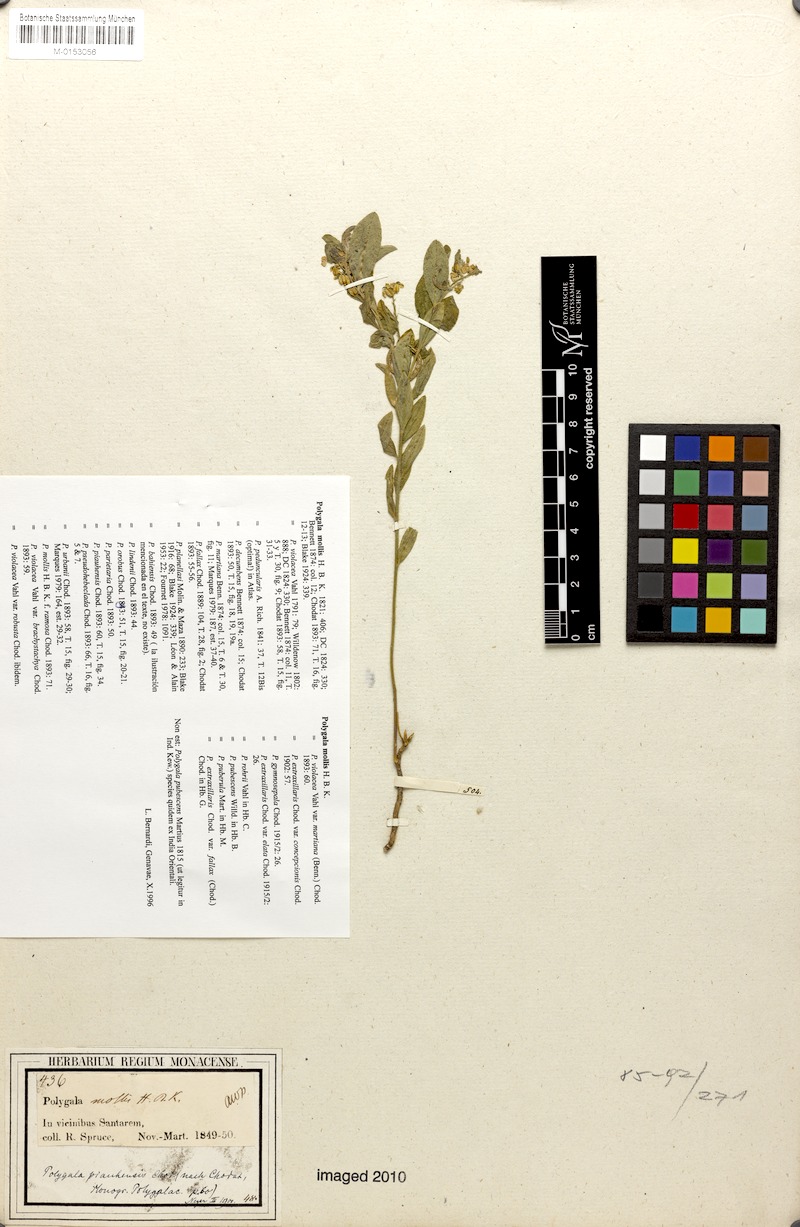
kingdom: Plantae
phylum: Tracheophyta
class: Magnoliopsida
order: Fabales
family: Polygalaceae
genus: Asemeia
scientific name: Asemeia ovata
